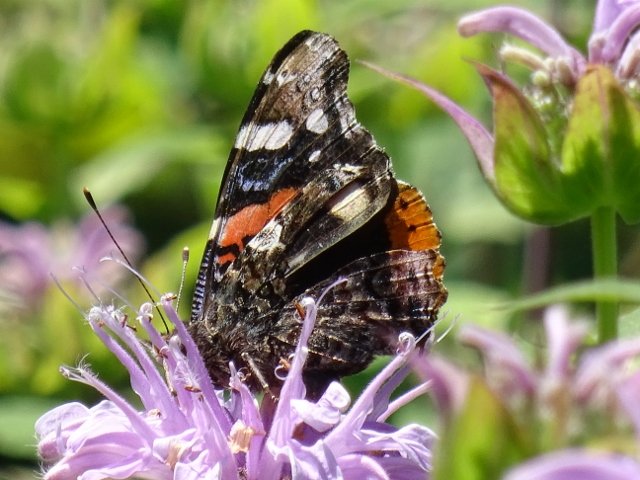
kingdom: Animalia
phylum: Arthropoda
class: Insecta
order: Lepidoptera
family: Nymphalidae
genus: Vanessa
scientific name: Vanessa atalanta
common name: Red Admiral
